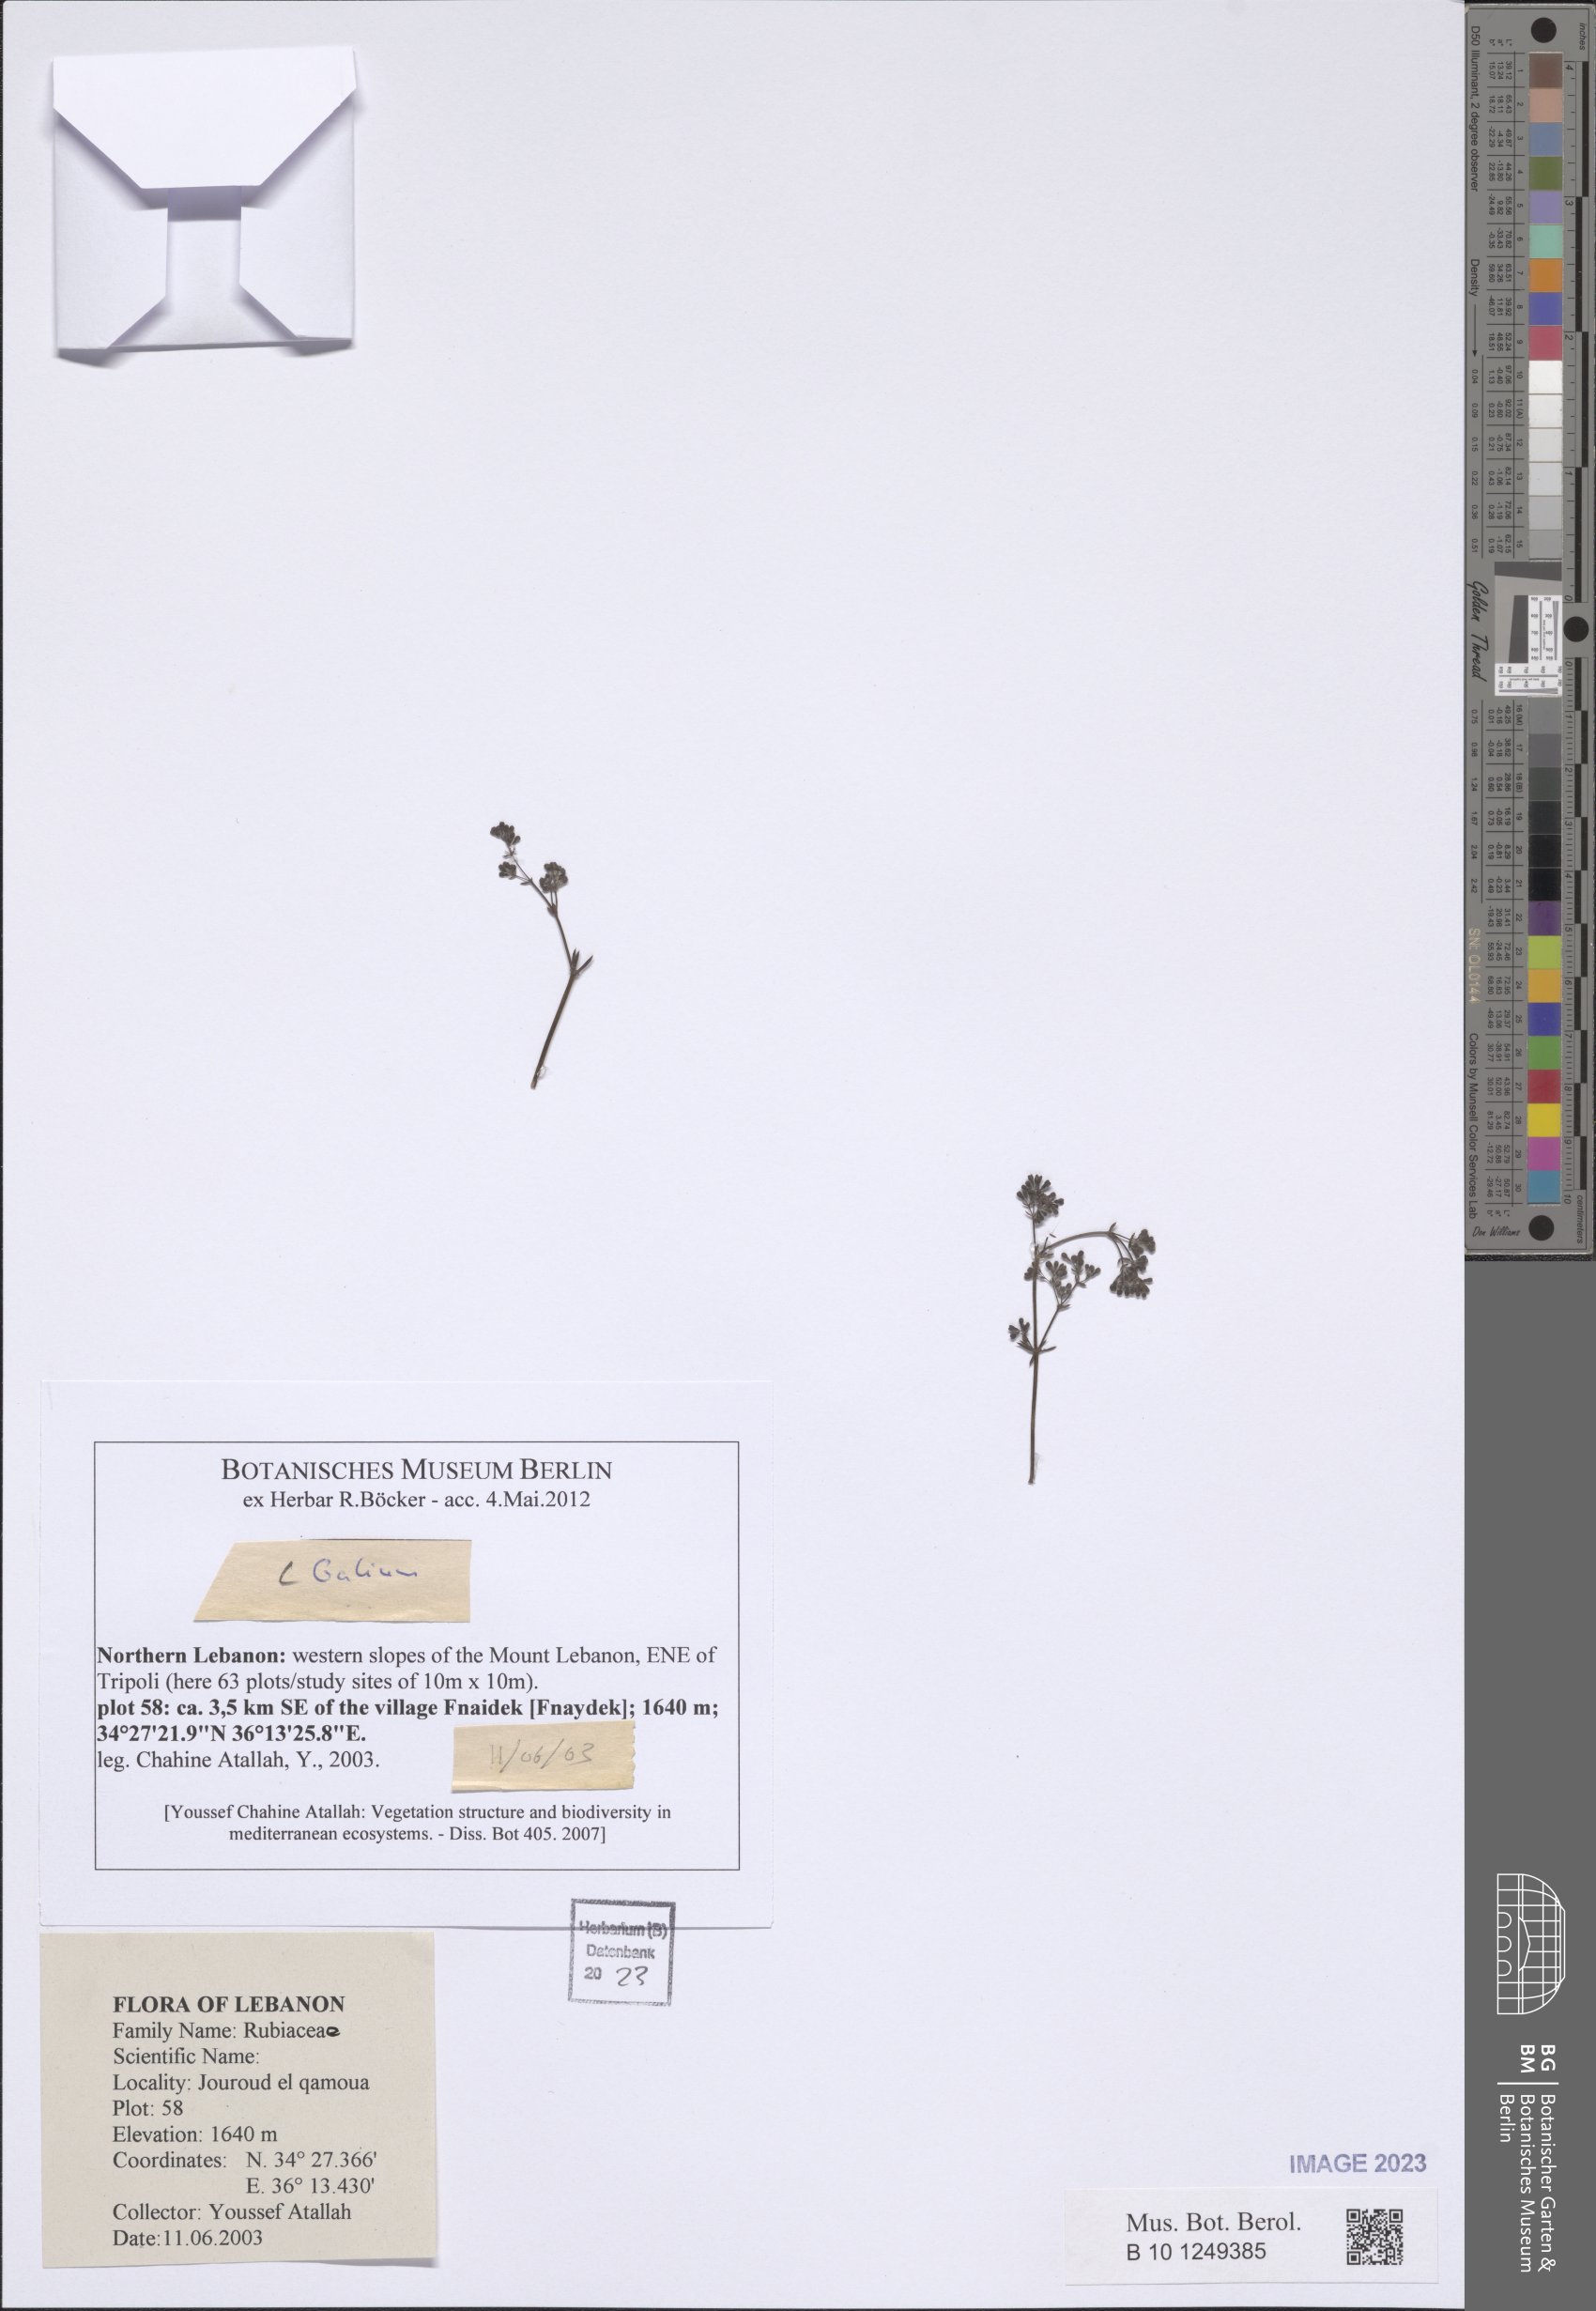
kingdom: Plantae
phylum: Tracheophyta
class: Magnoliopsida
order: Gentianales
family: Rubiaceae
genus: Galium
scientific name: Galium
